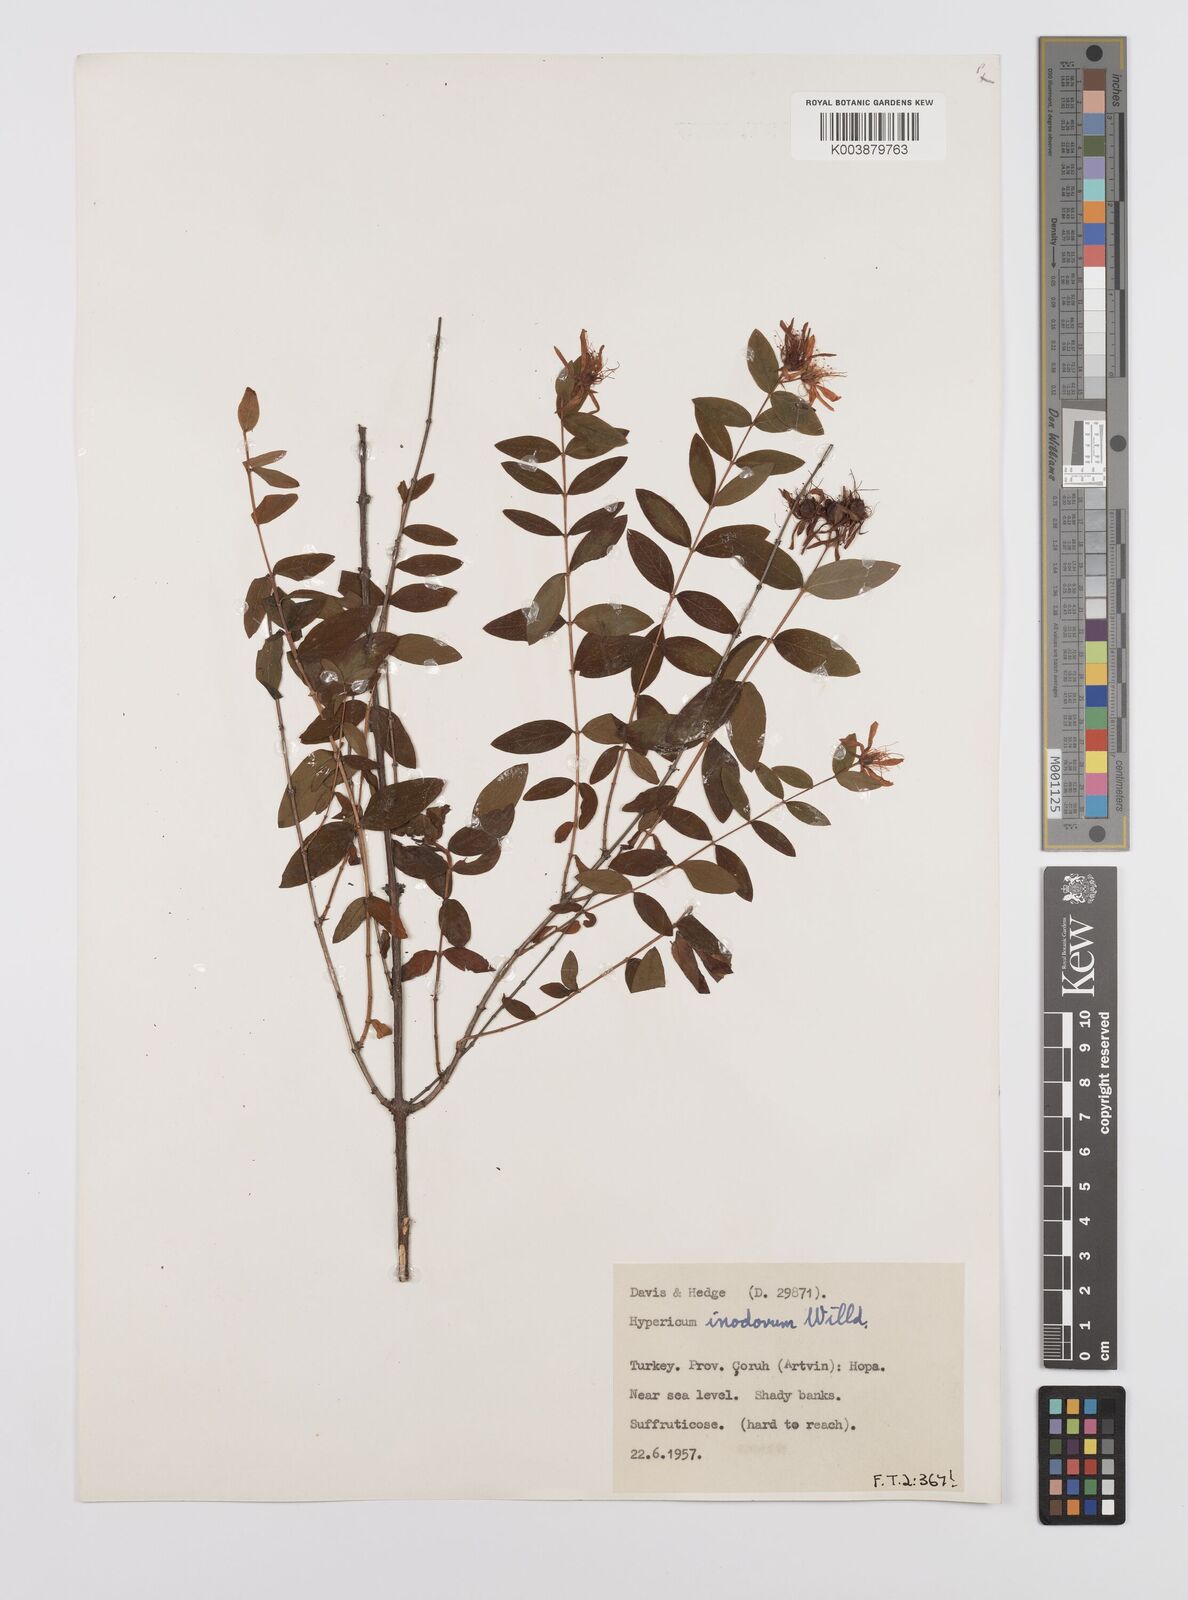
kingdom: Plantae
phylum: Tracheophyta
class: Magnoliopsida
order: Malpighiales
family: Hypericaceae
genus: Hypericum
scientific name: Hypericum xylosteifolium
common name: Turkish tutsan
